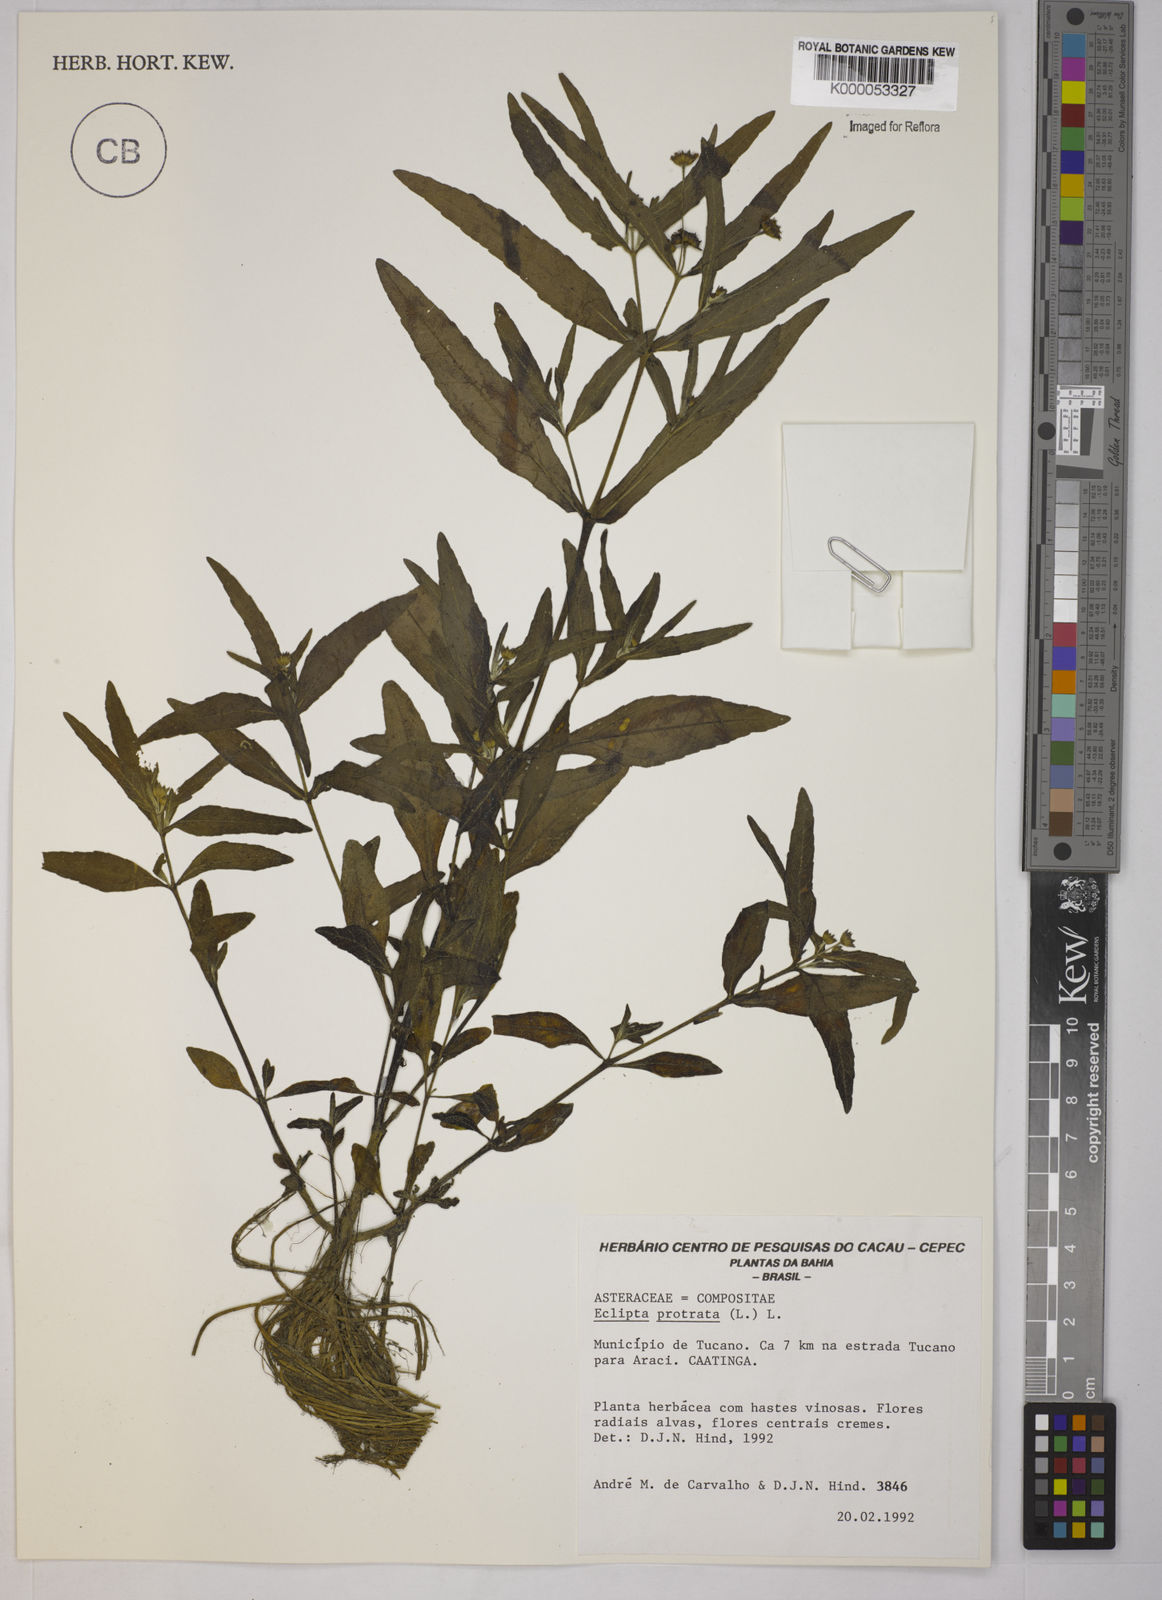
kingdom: Plantae
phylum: Tracheophyta
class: Magnoliopsida
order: Asterales
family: Asteraceae
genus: Eclipta
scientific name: Eclipta prostrata
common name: False daisy
